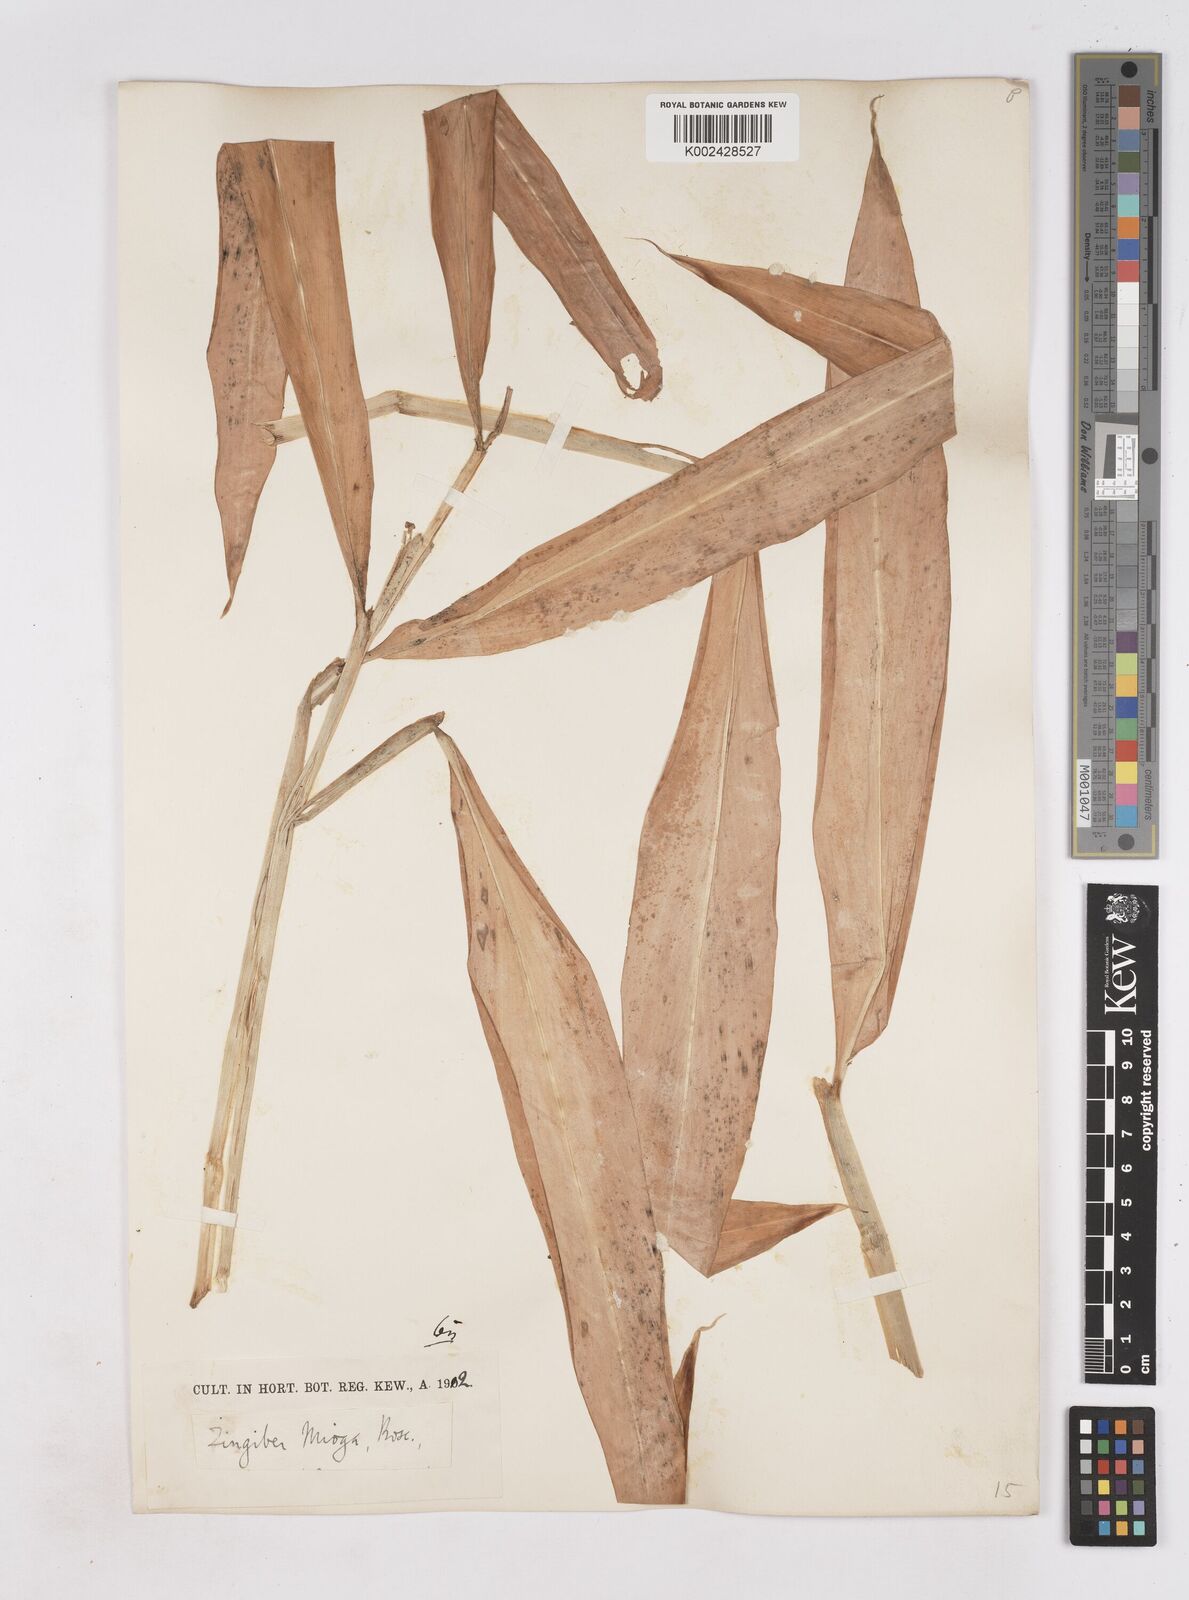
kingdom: Plantae
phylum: Tracheophyta
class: Liliopsida
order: Zingiberales
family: Zingiberaceae
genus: Zingiber
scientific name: Zingiber mioga
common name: Japanese ginger
